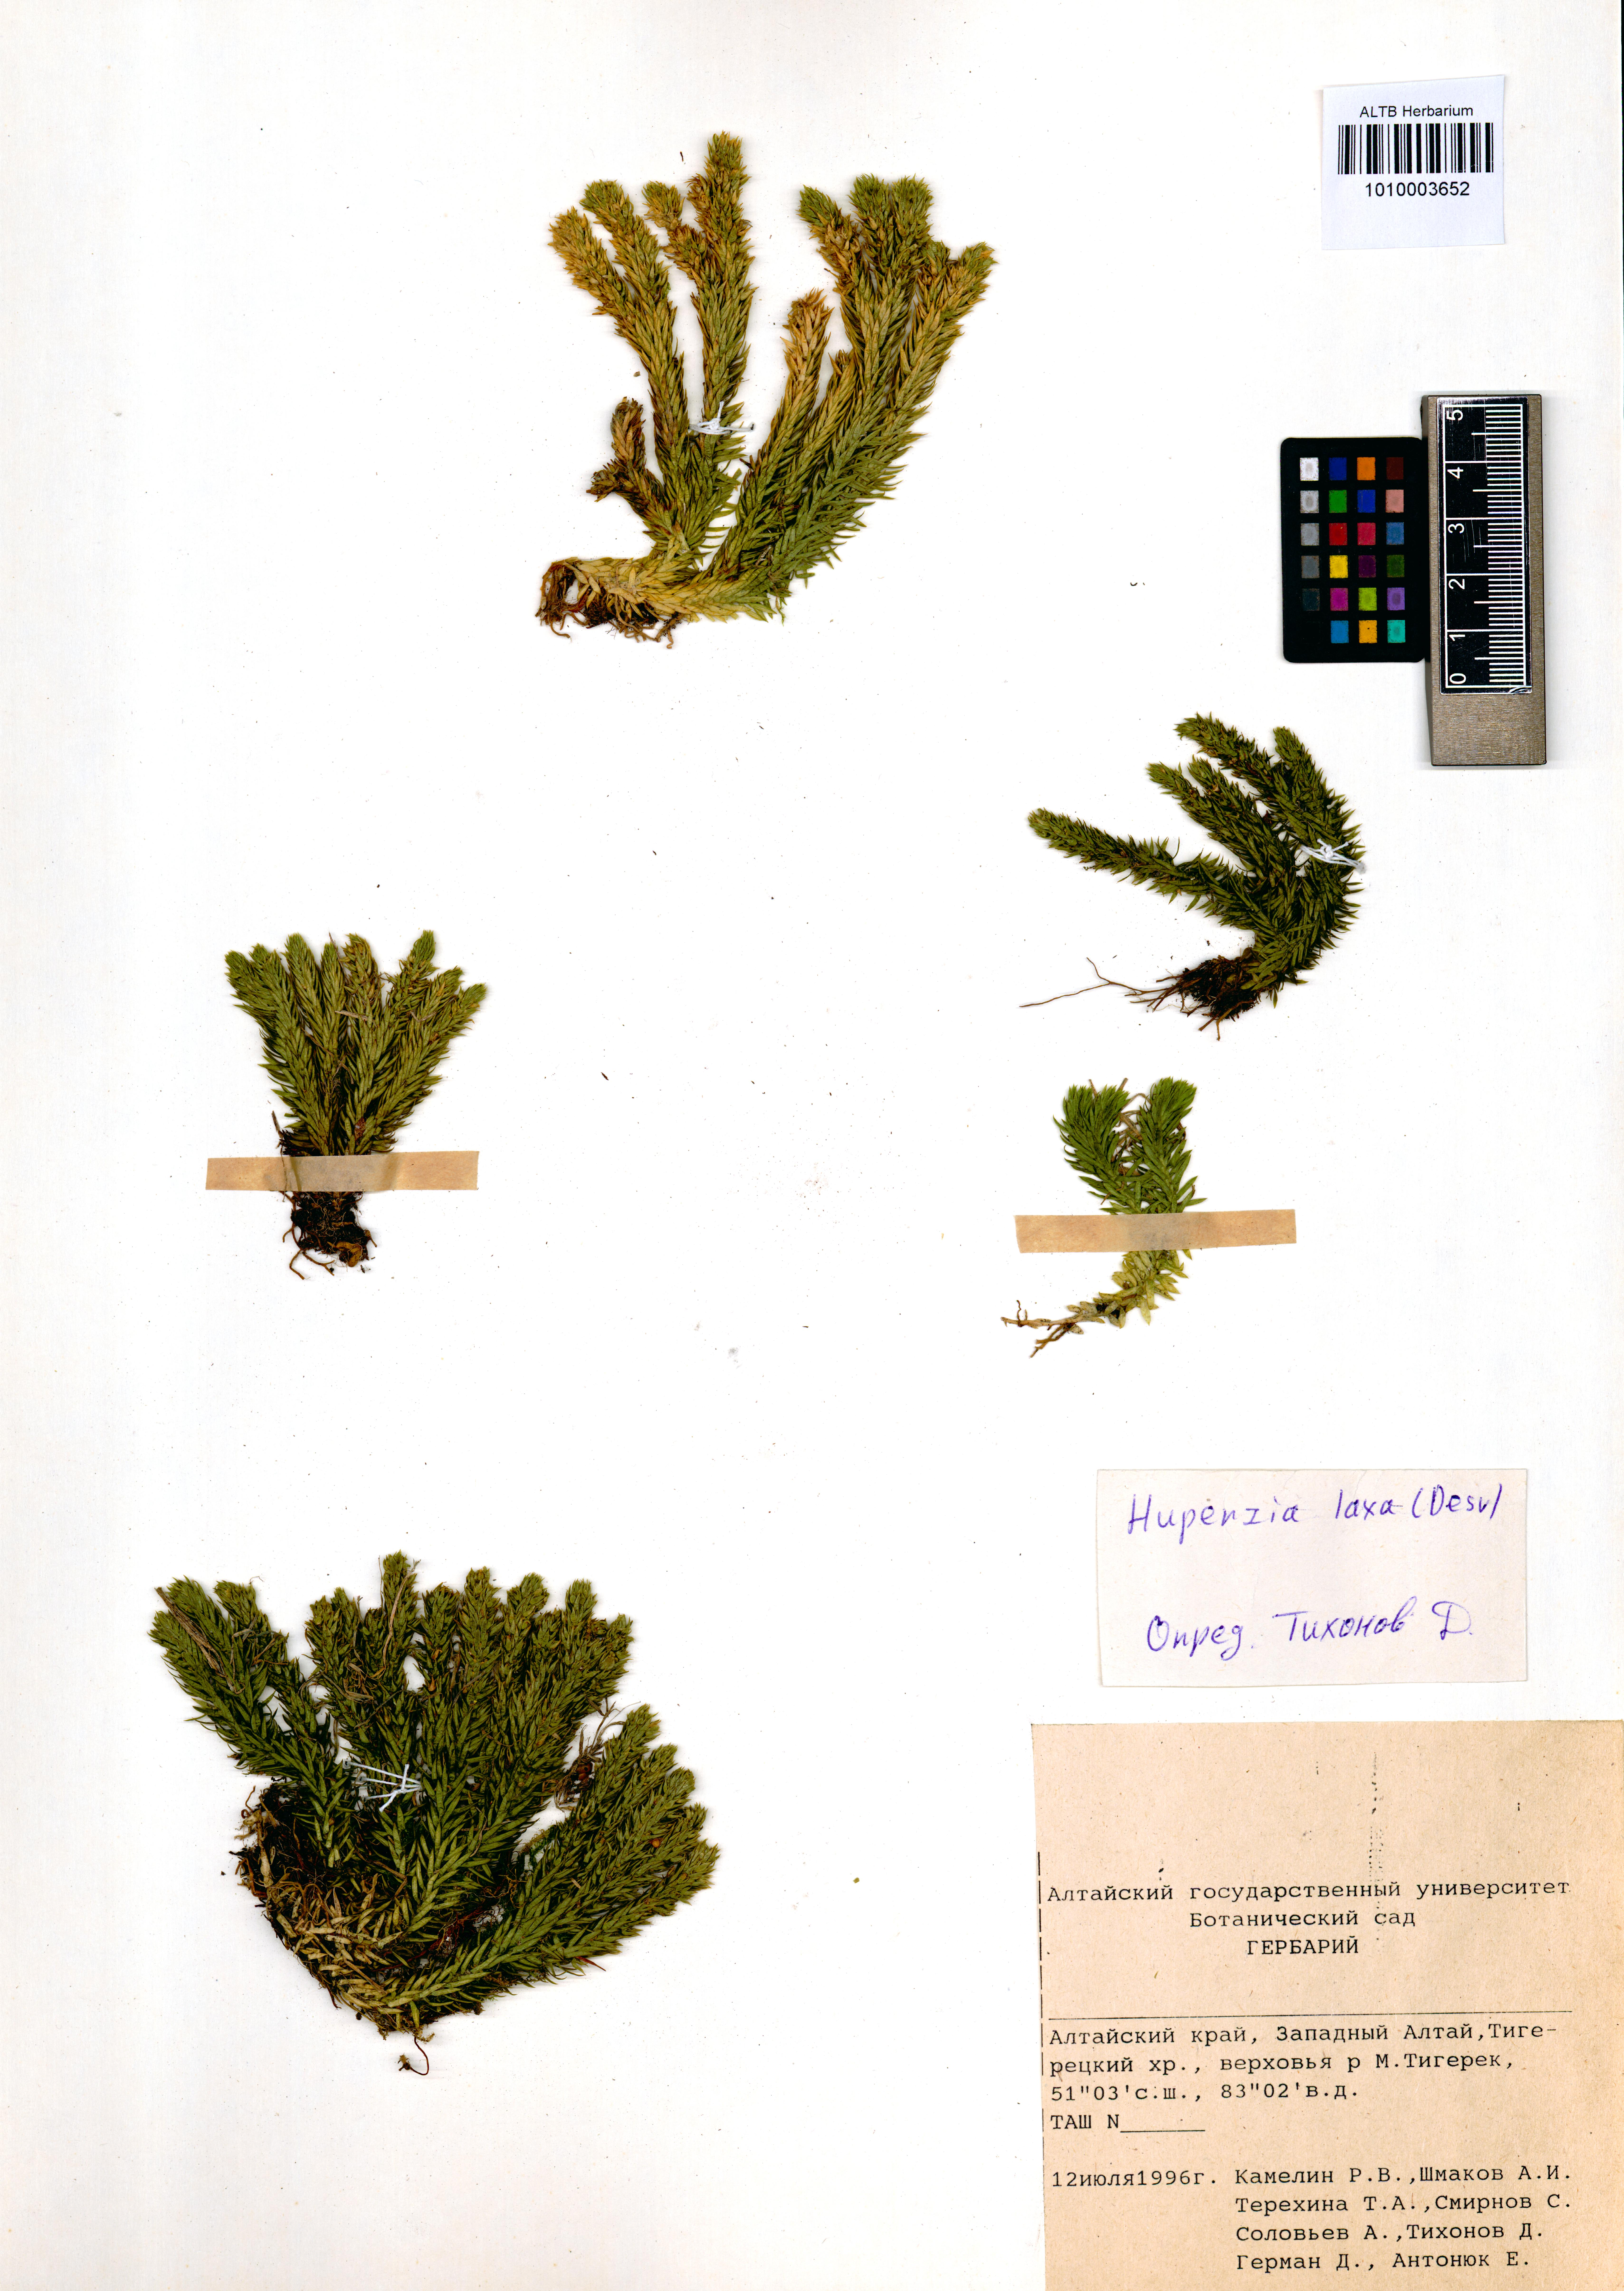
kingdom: Plantae
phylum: Tracheophyta
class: Lycopodiopsida
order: Lycopodiales
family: Lycopodiaceae
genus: Phlegmariurus
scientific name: Phlegmariurus carinatus
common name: Keeled tassel-fern
